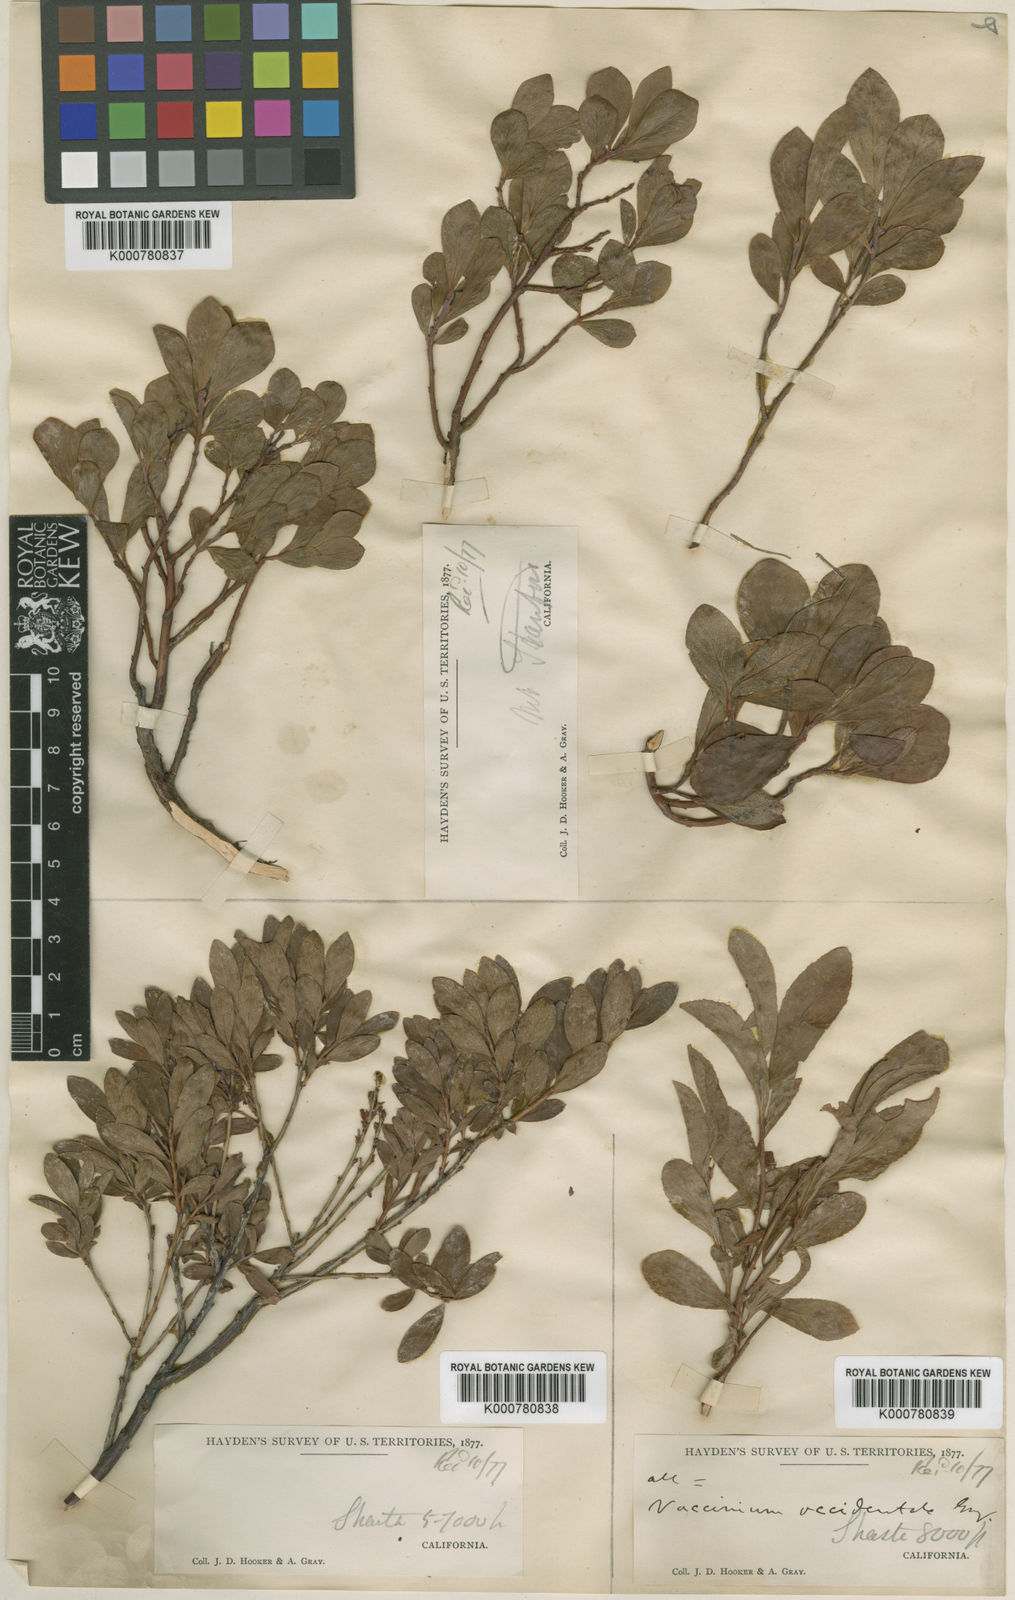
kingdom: Plantae
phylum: Tracheophyta
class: Magnoliopsida
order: Ericales
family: Ericaceae
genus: Vaccinium
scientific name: Vaccinium uliginosum
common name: Bog bilberry
